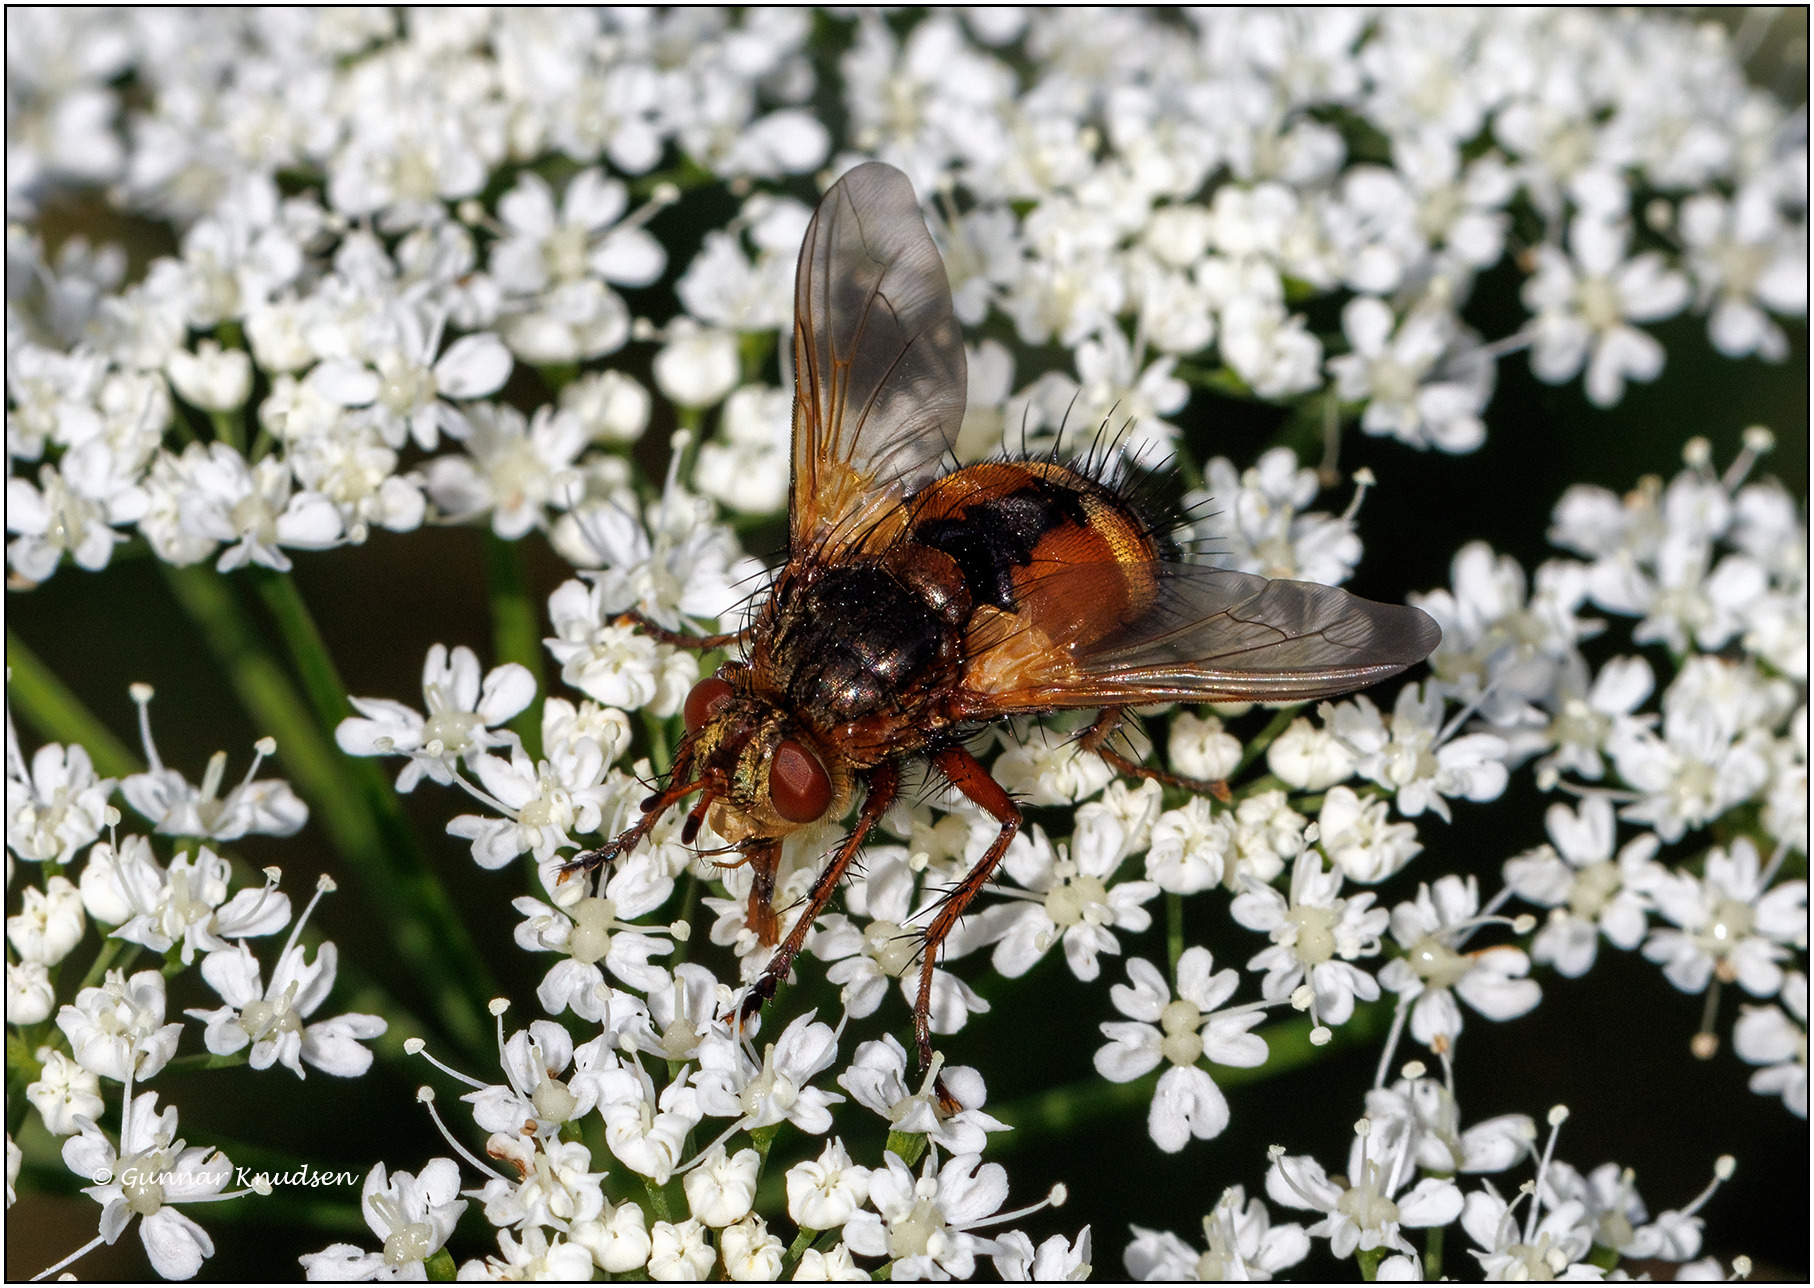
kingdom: Animalia
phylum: Arthropoda
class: Insecta
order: Diptera
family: Tachinidae
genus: Tachina
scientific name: Tachina fera
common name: Mellemfluen oskar
